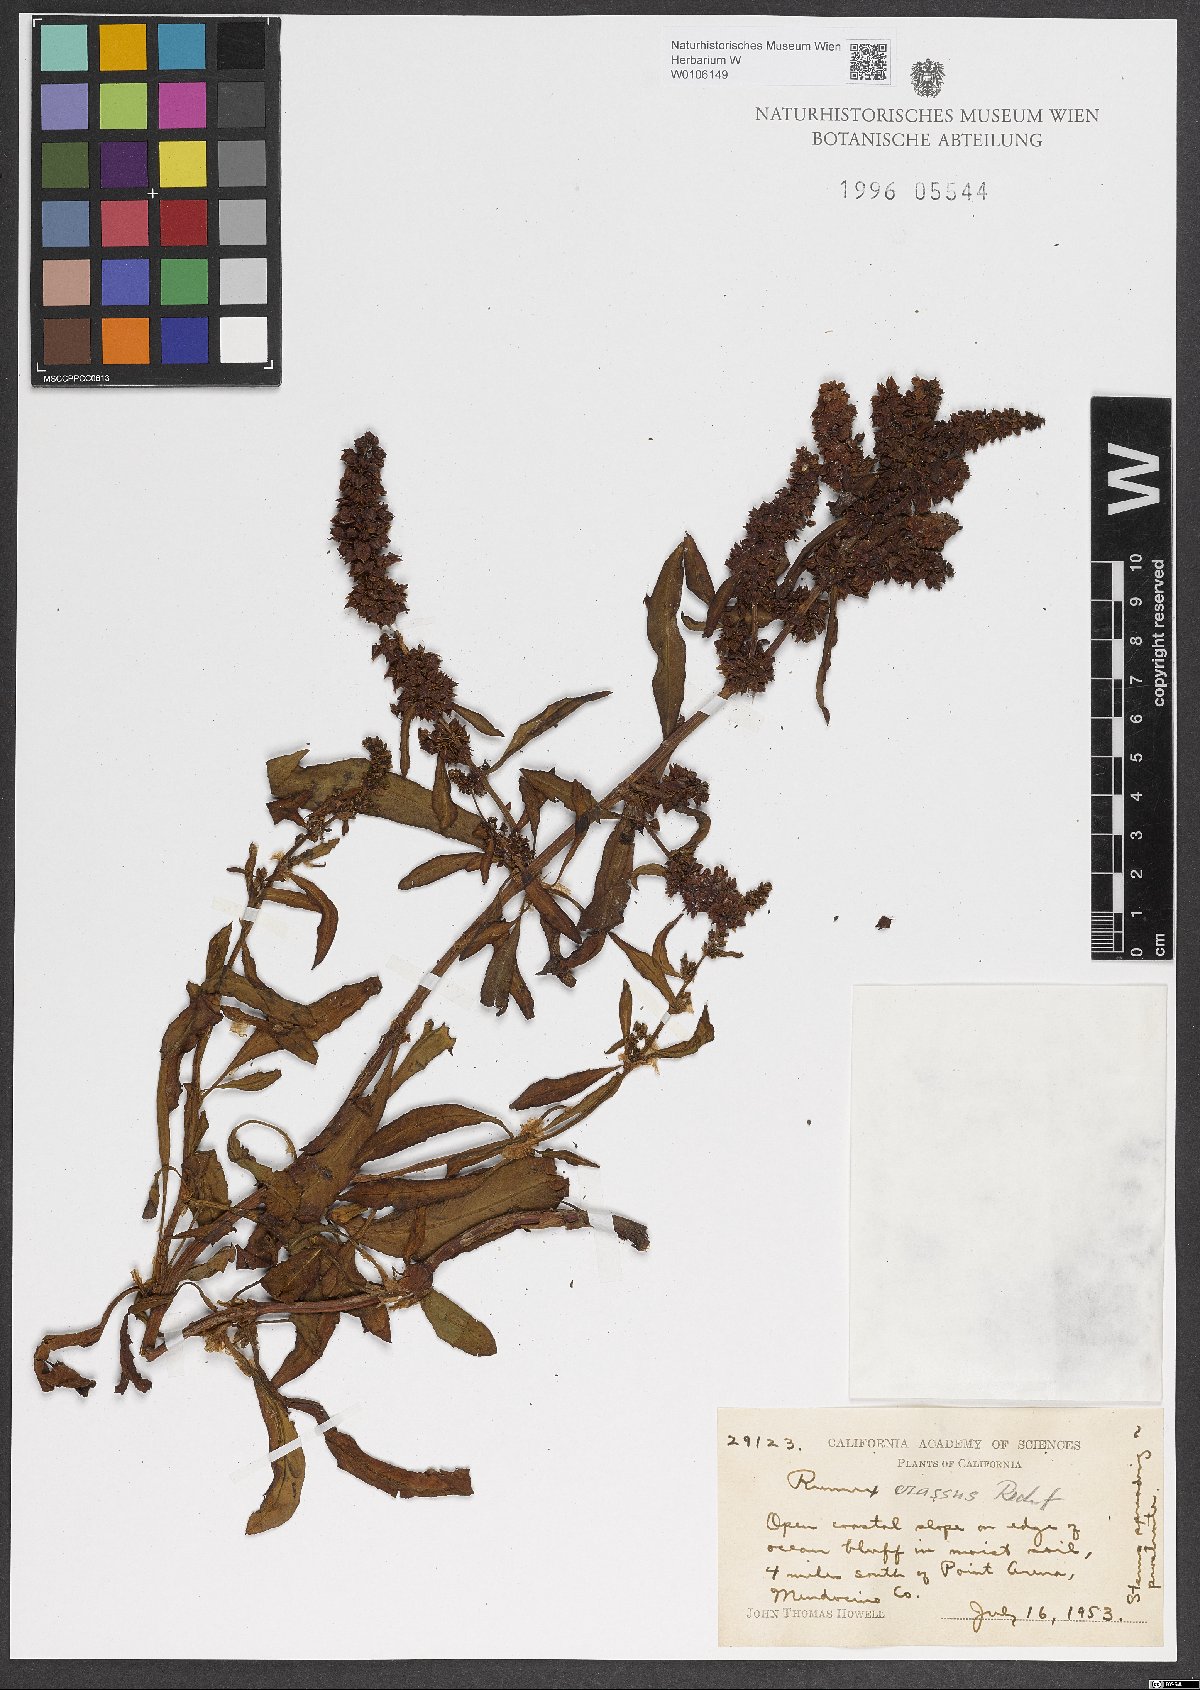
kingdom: Plantae
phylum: Tracheophyta
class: Magnoliopsida
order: Caryophyllales
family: Polygonaceae
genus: Rumex
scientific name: Rumex crassus
